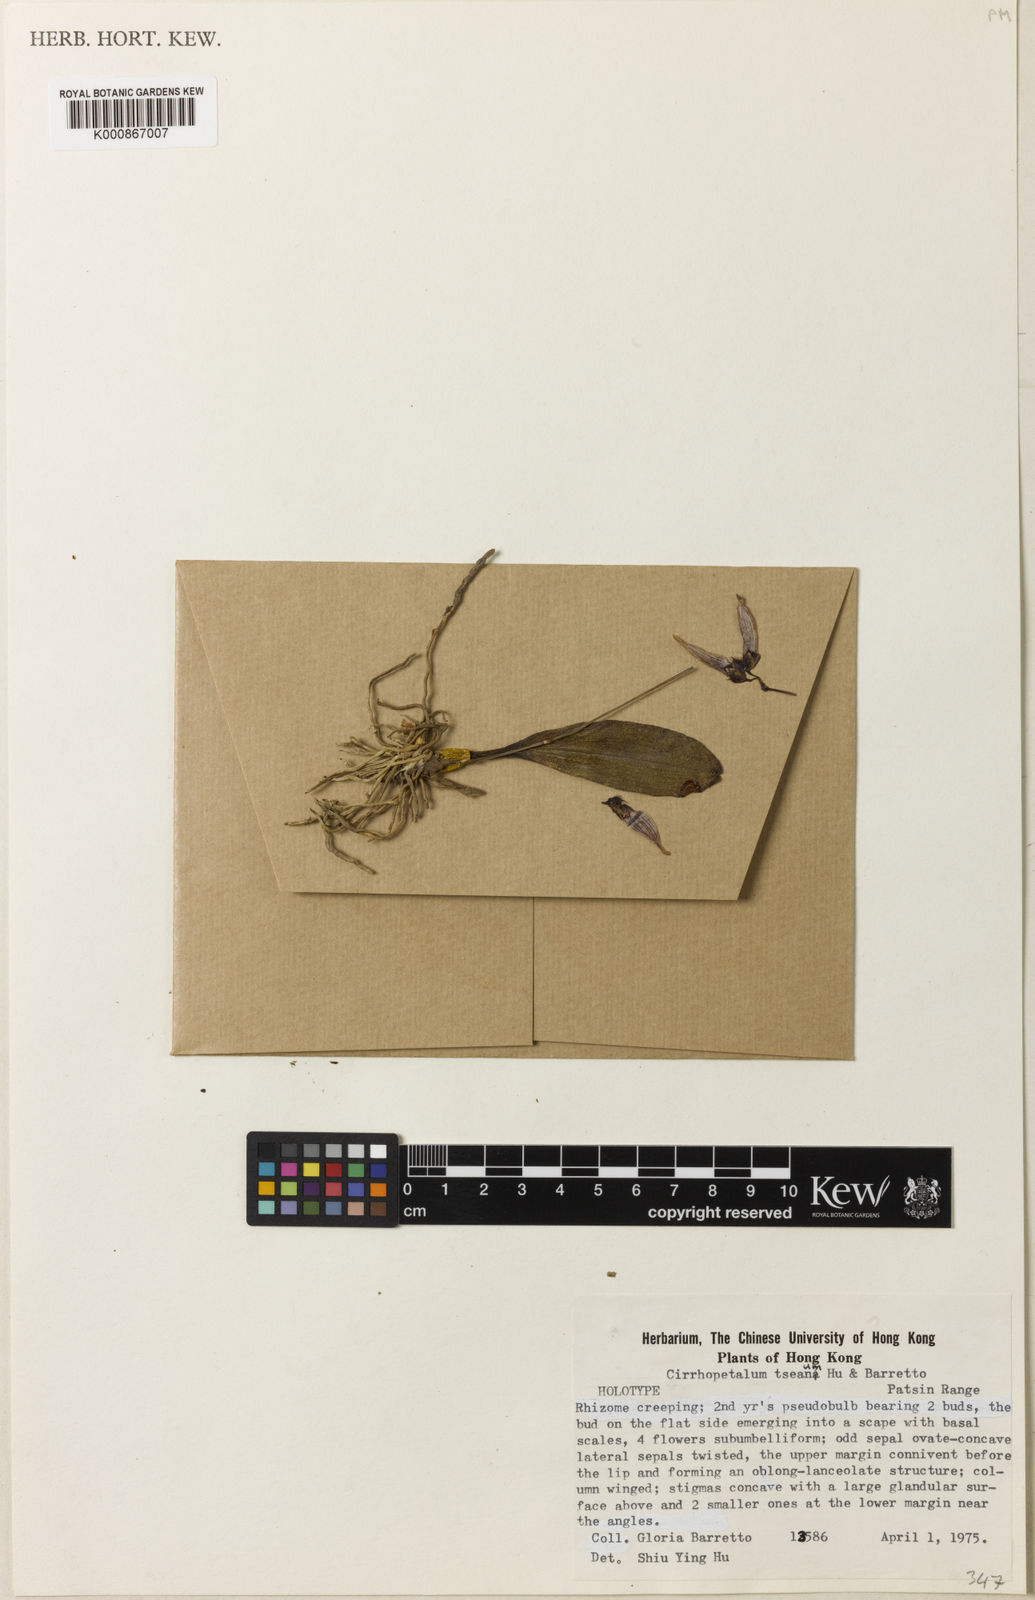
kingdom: Plantae
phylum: Tracheophyta
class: Liliopsida
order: Asparagales
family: Orchidaceae
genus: Bulbophyllum
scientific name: Bulbophyllum tseanum
